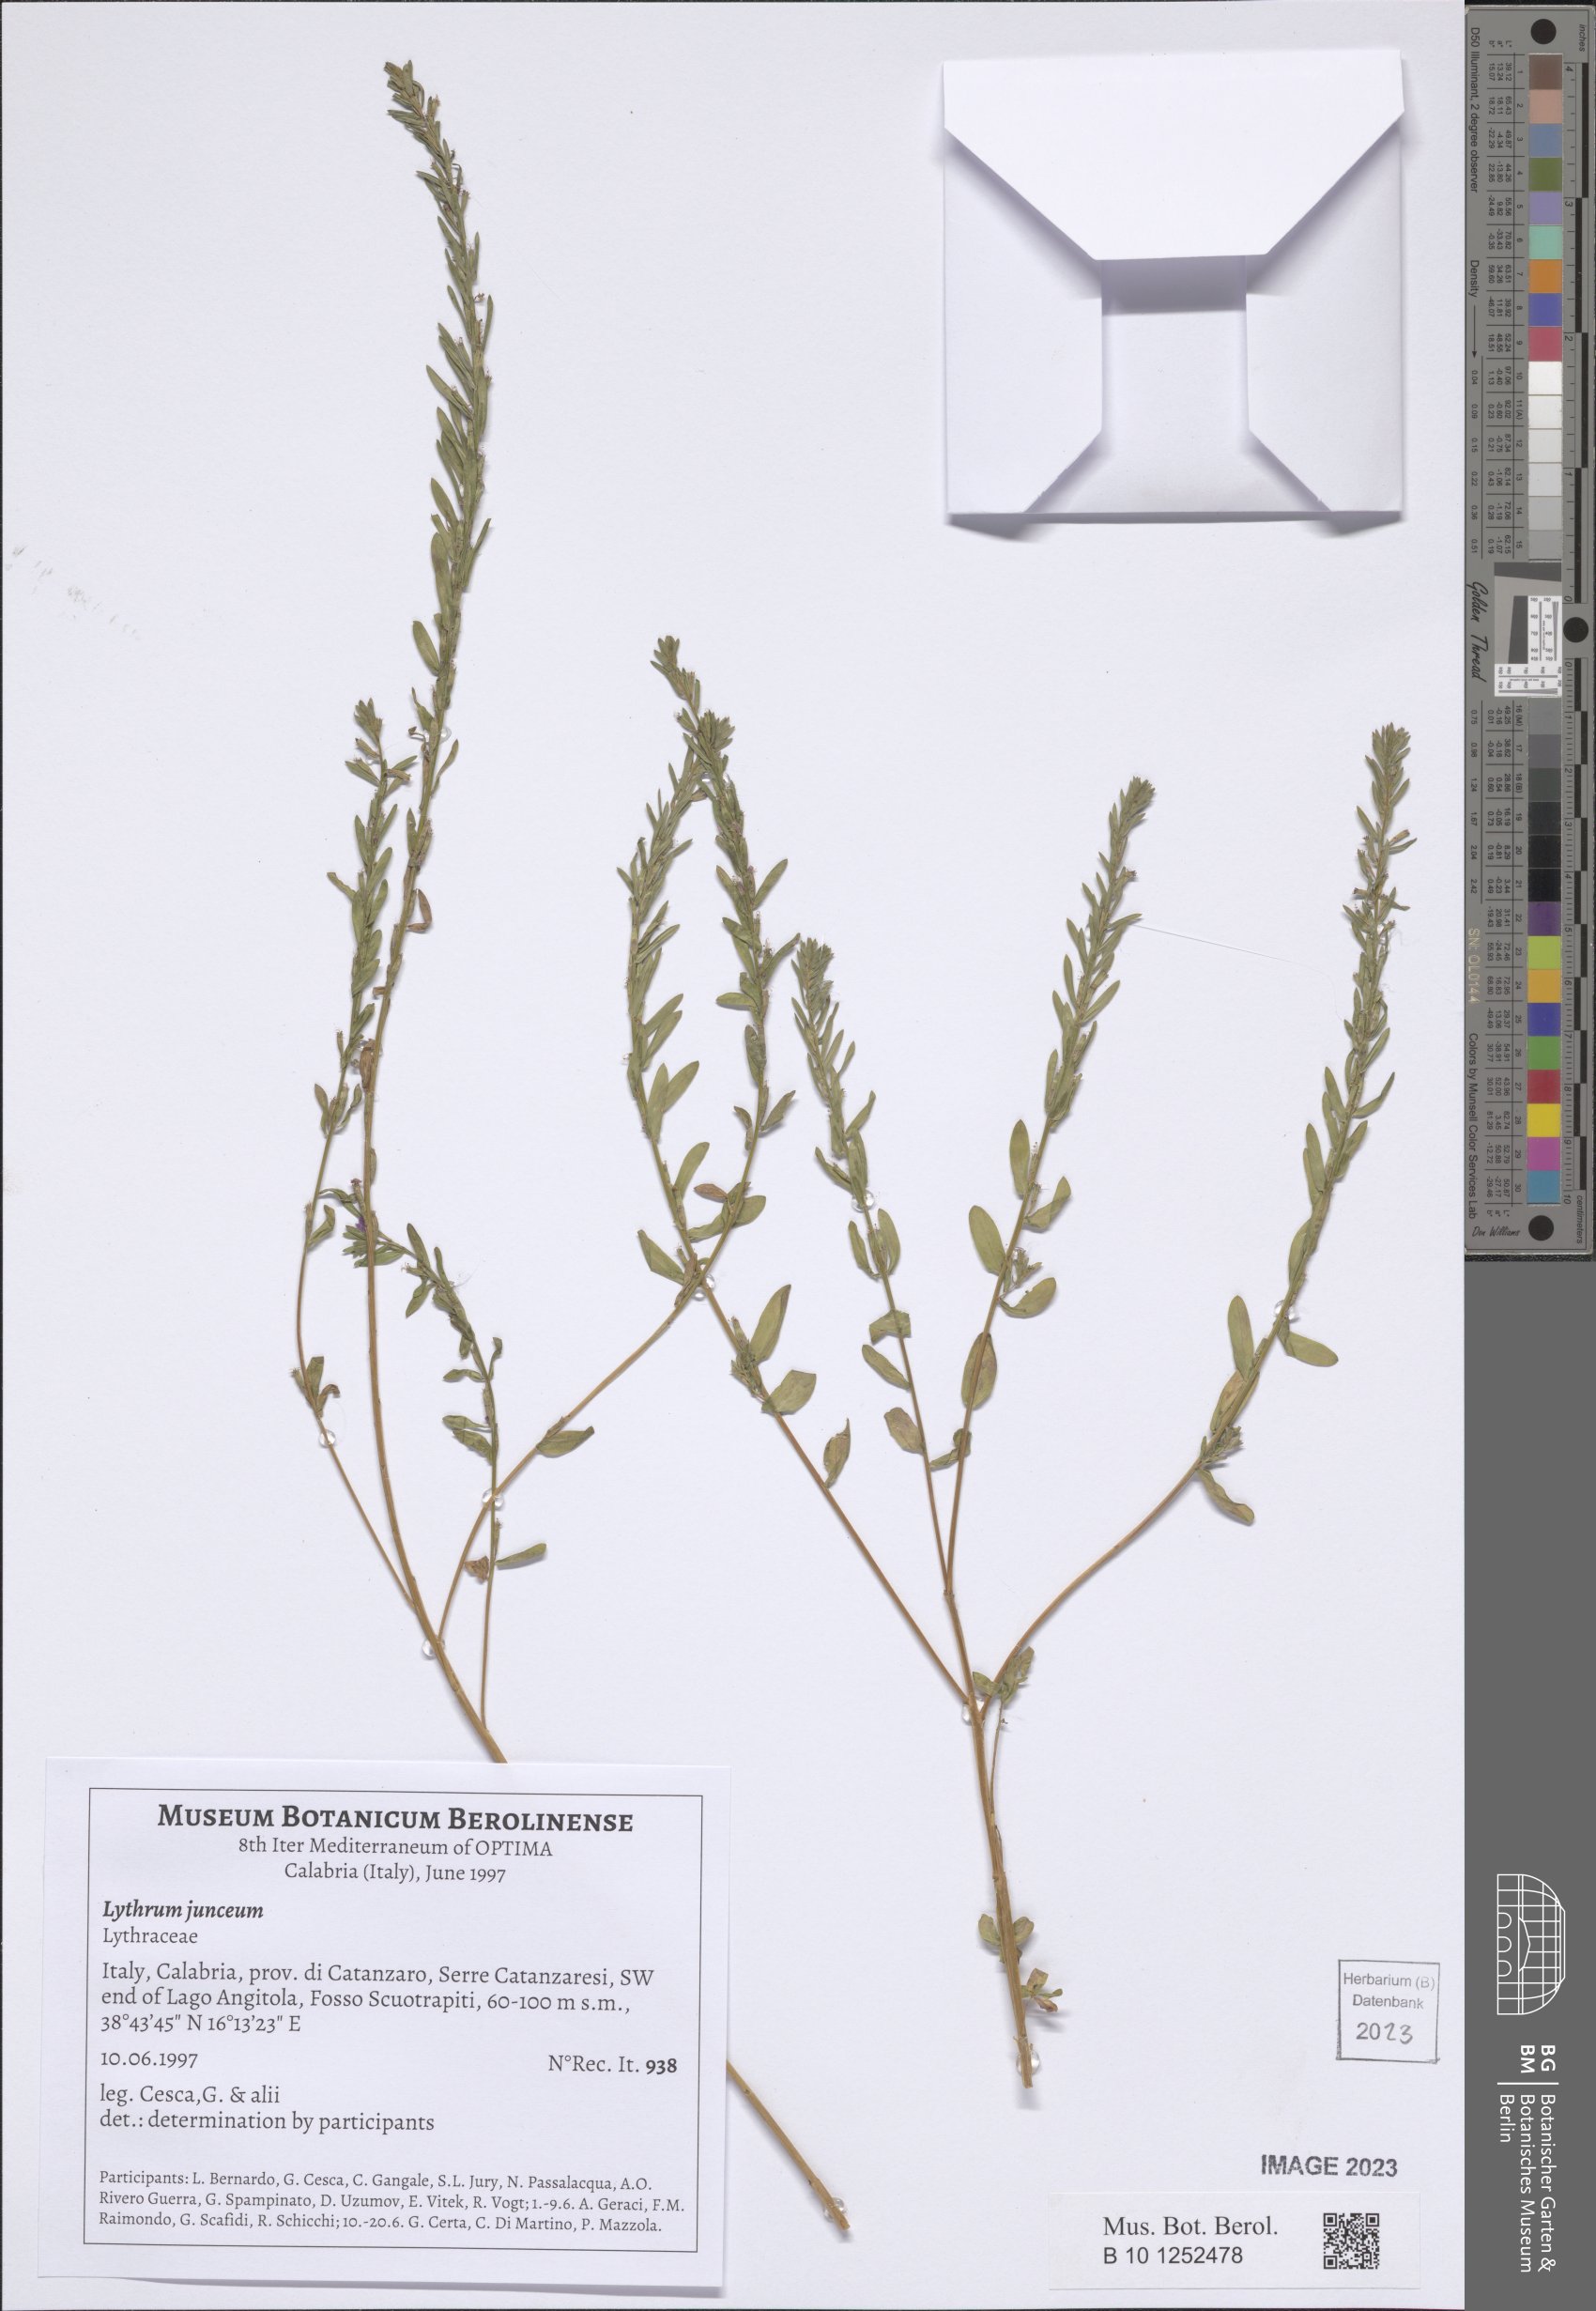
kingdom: Plantae
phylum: Tracheophyta
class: Magnoliopsida
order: Myrtales
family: Lythraceae
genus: Lythrum
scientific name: Lythrum junceum
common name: False grass-poly
